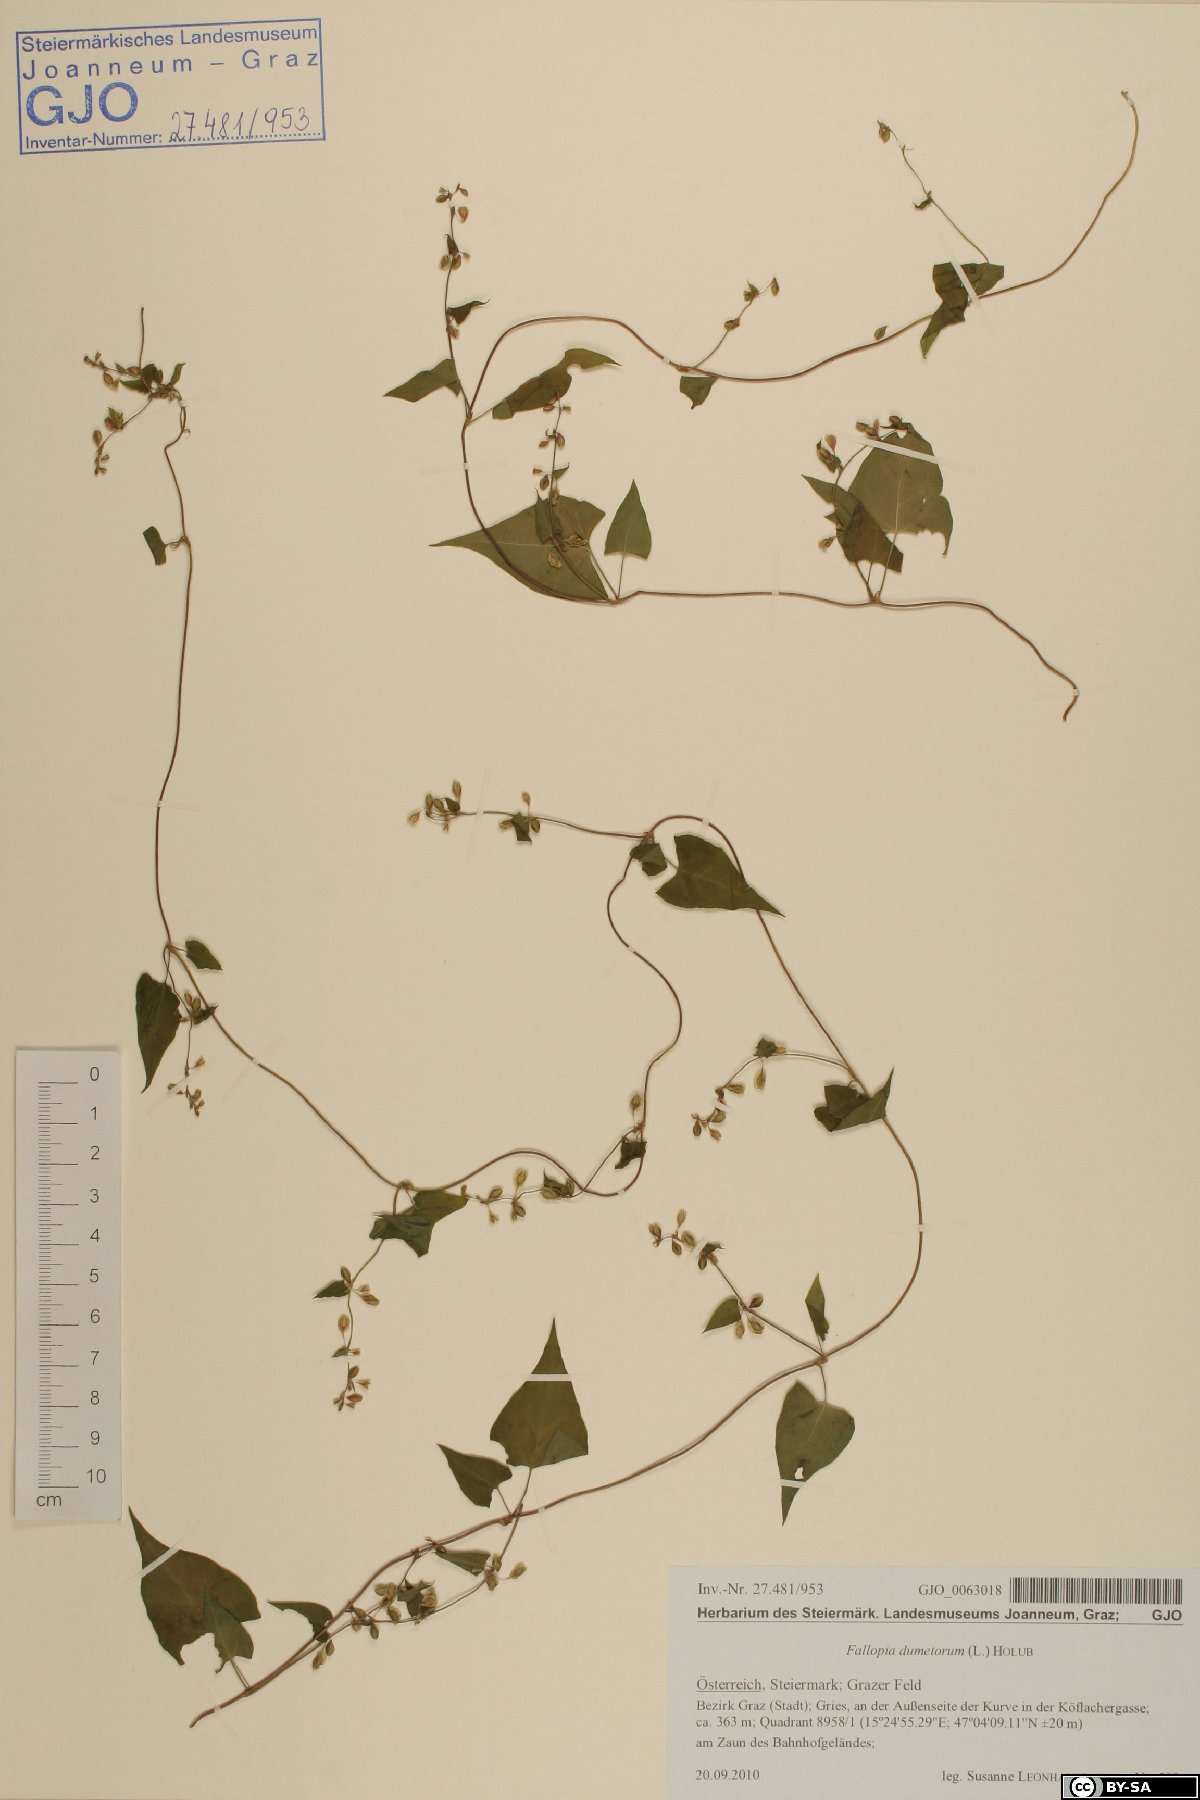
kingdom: Plantae
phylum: Tracheophyta
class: Magnoliopsida
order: Caryophyllales
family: Polygonaceae
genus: Fallopia
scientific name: Fallopia dumetorum
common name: Copse-bindweed
